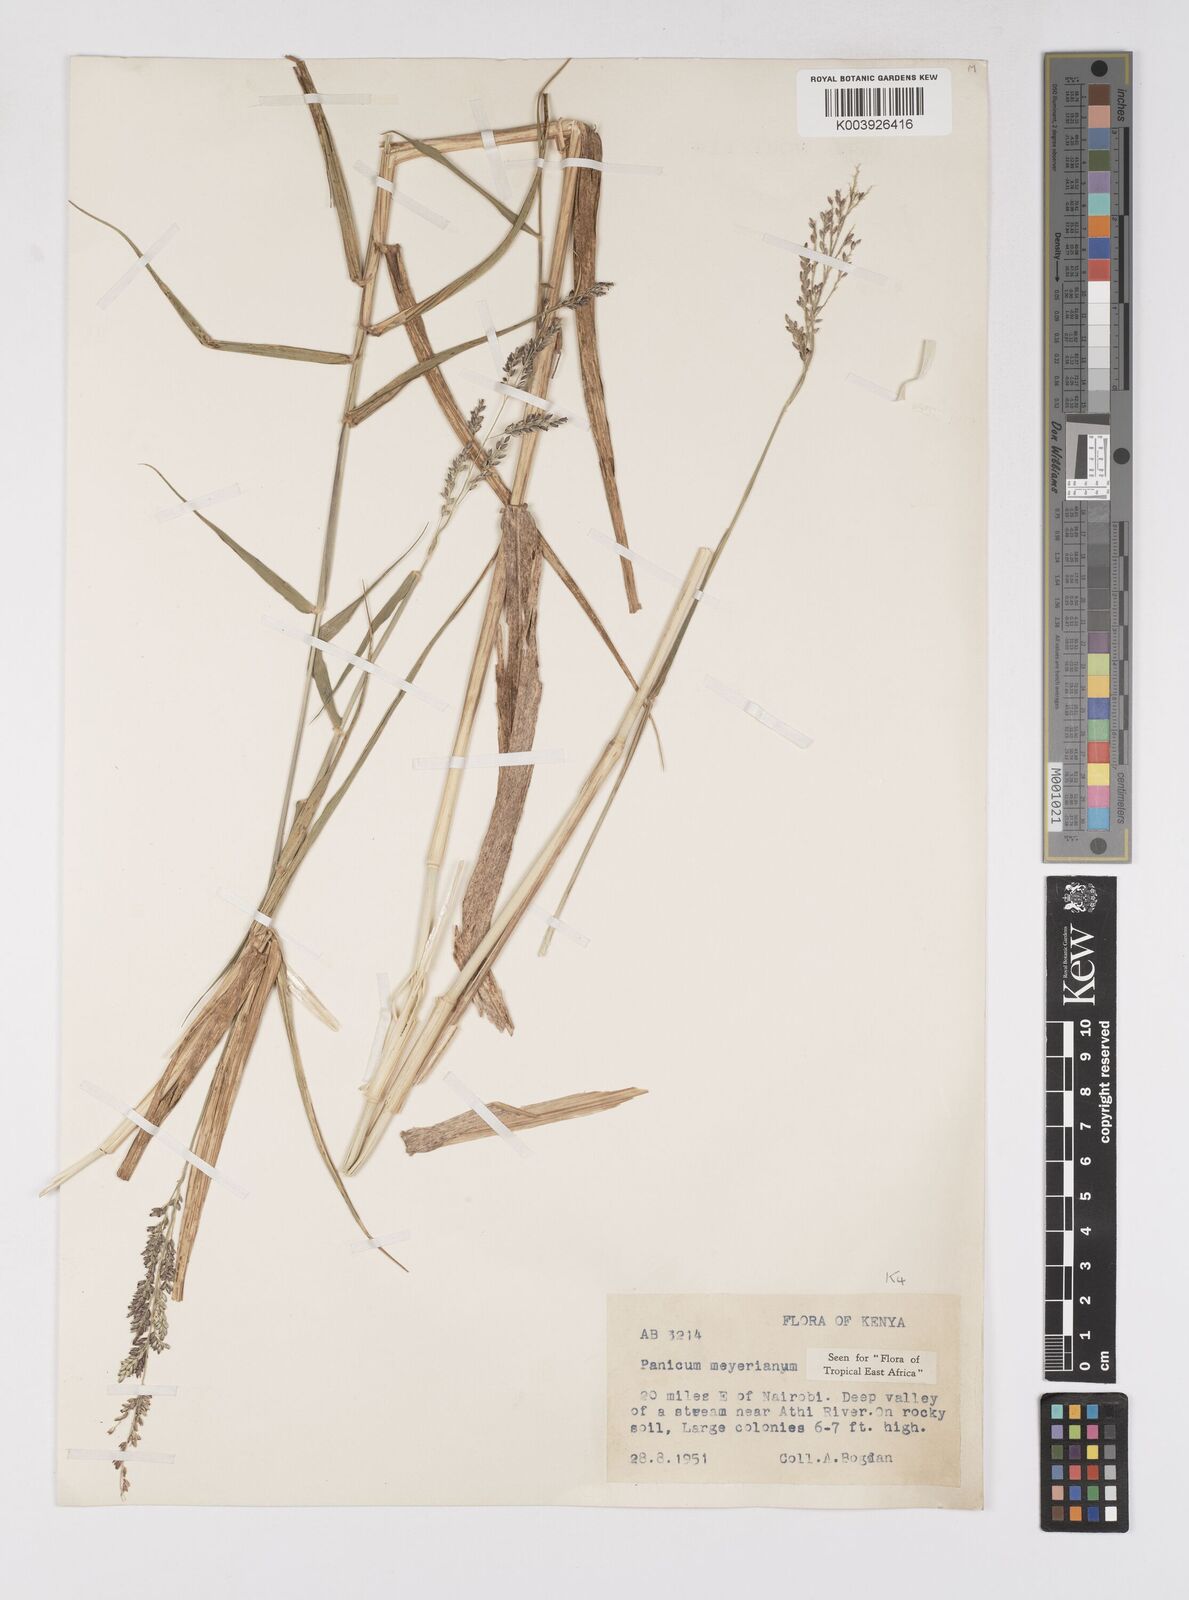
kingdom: Plantae
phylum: Tracheophyta
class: Liliopsida
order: Poales
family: Poaceae
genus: Eriochloa
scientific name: Eriochloa meyeriana
